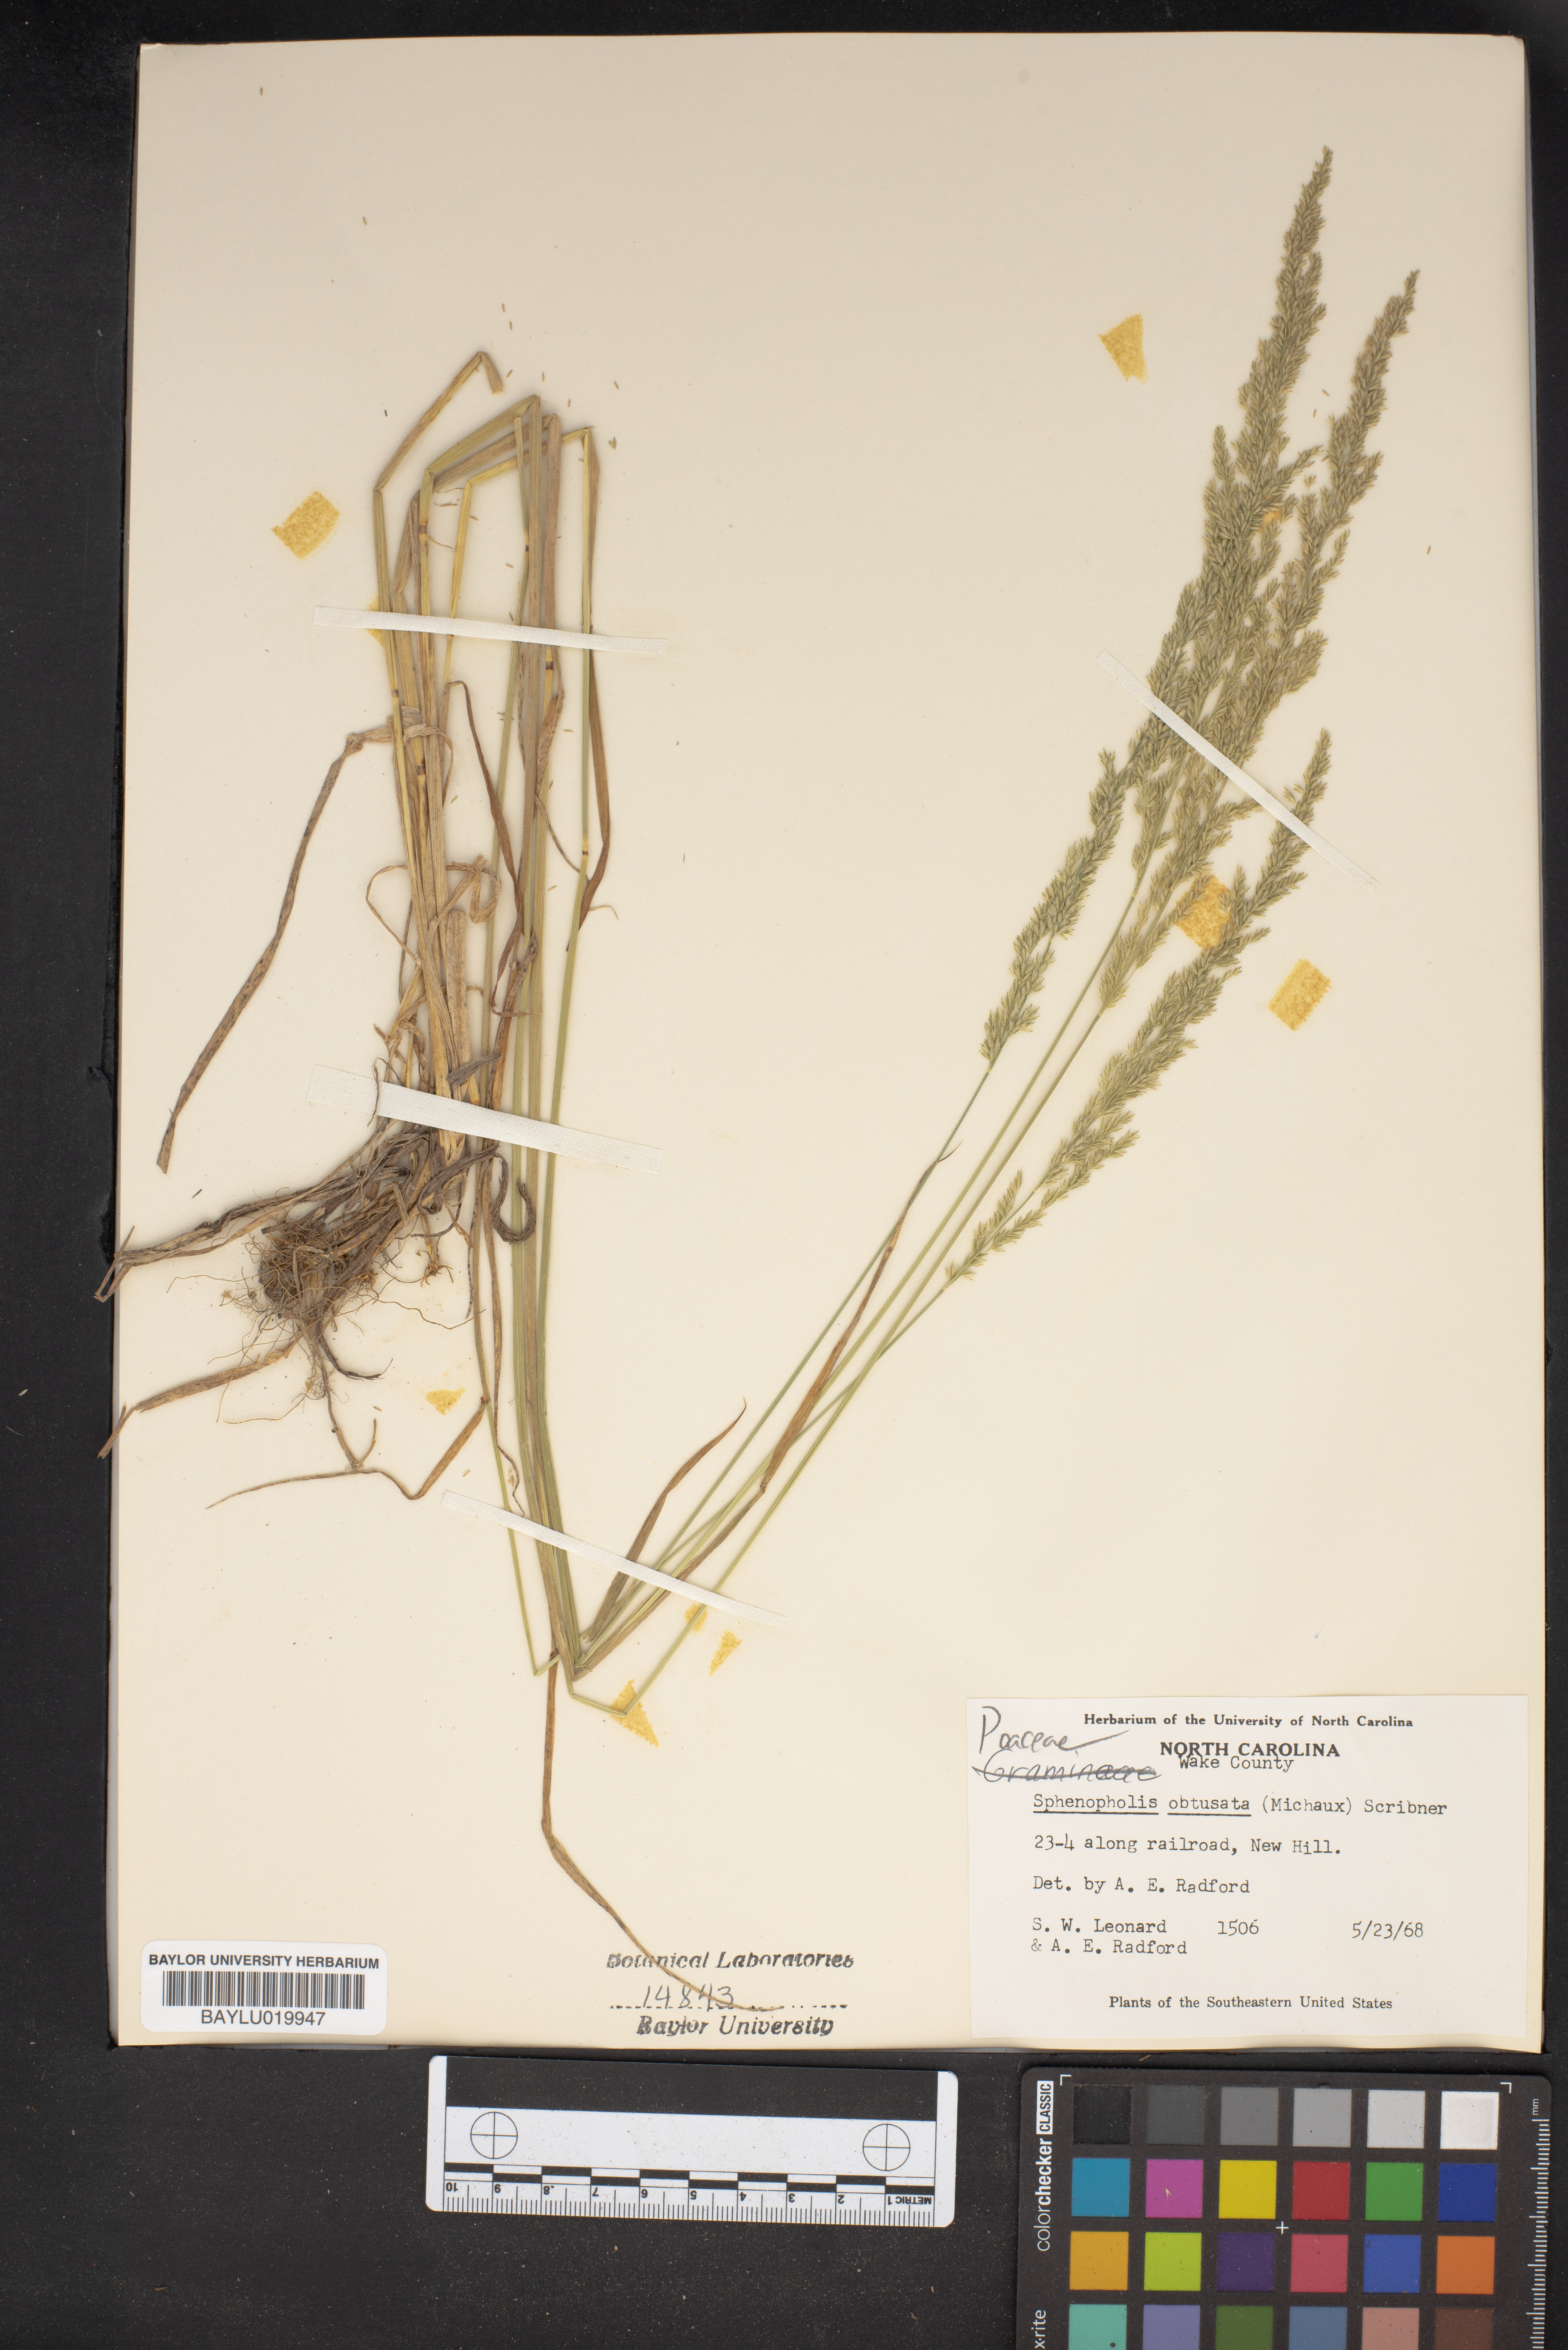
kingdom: Plantae
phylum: Tracheophyta
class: Liliopsida
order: Poales
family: Poaceae
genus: Sphenopholis
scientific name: Sphenopholis obtusata
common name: Prairie grass
